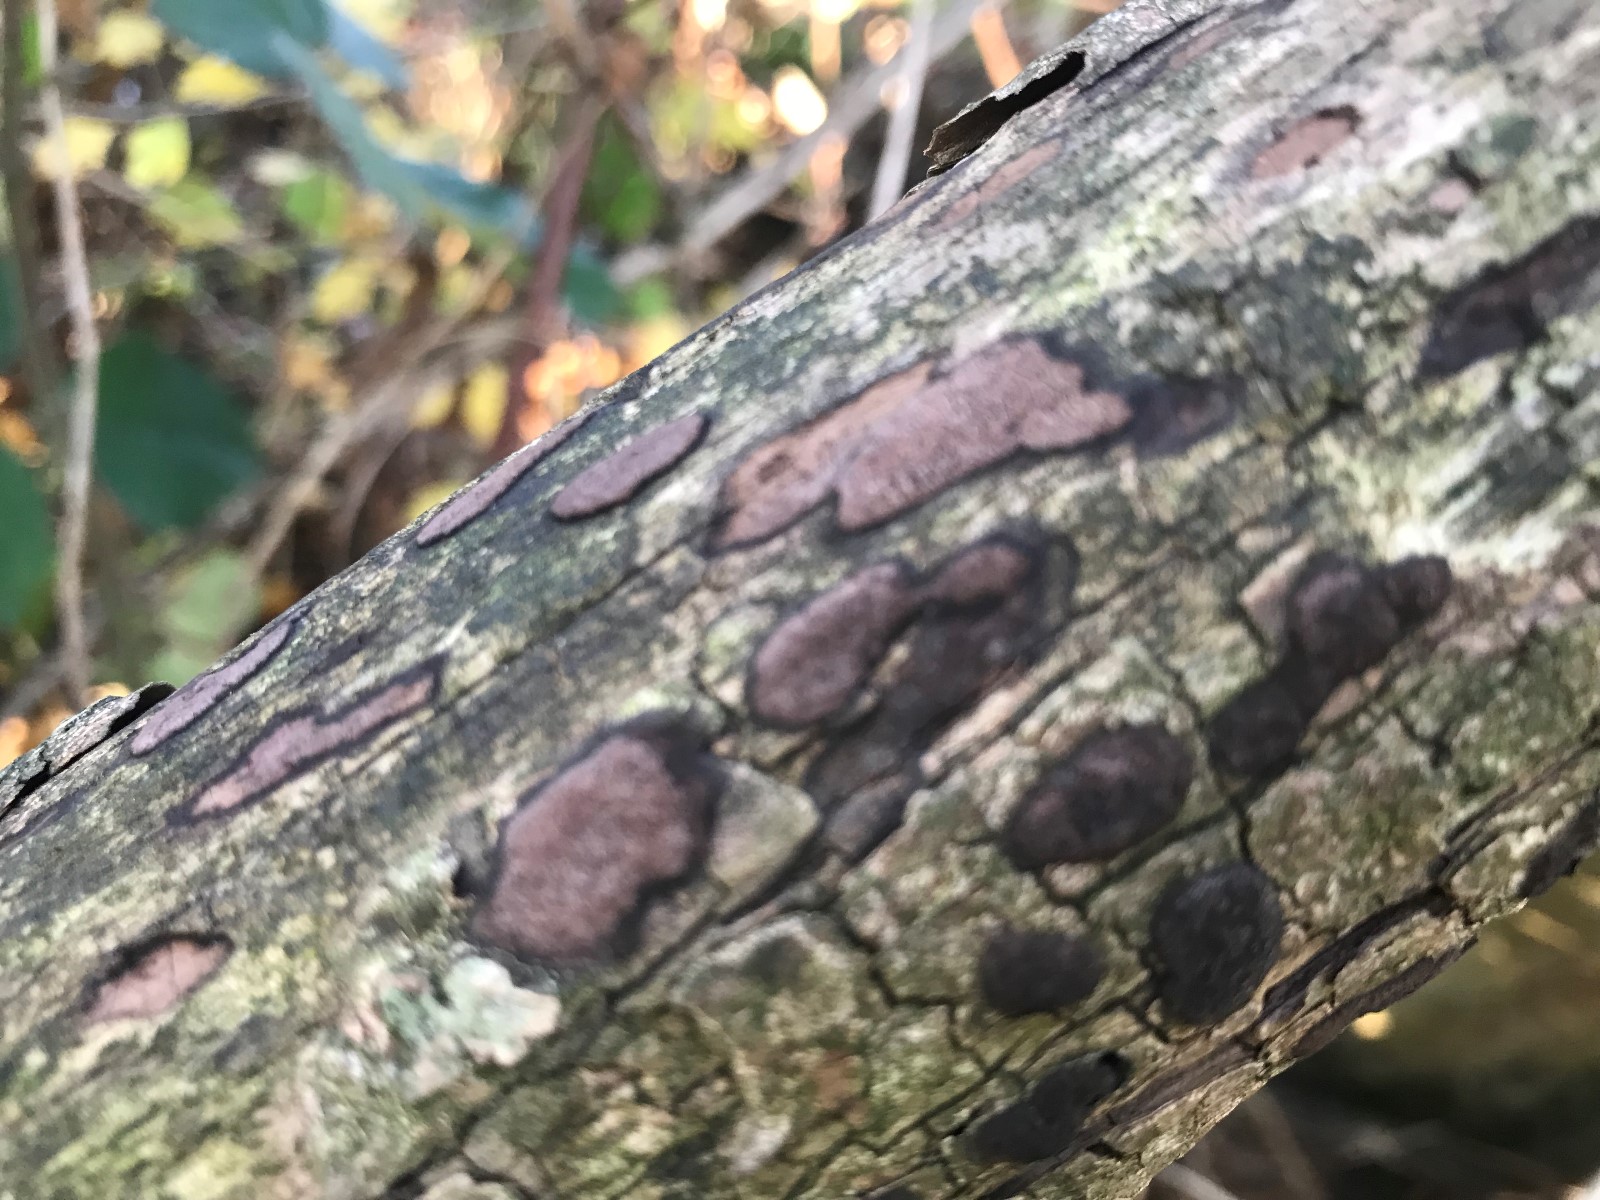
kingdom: Fungi
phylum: Ascomycota
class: Sordariomycetes
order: Xylariales
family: Hypoxylaceae
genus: Hypoxylon
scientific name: Hypoxylon petriniae
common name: nedsænket kulbær
